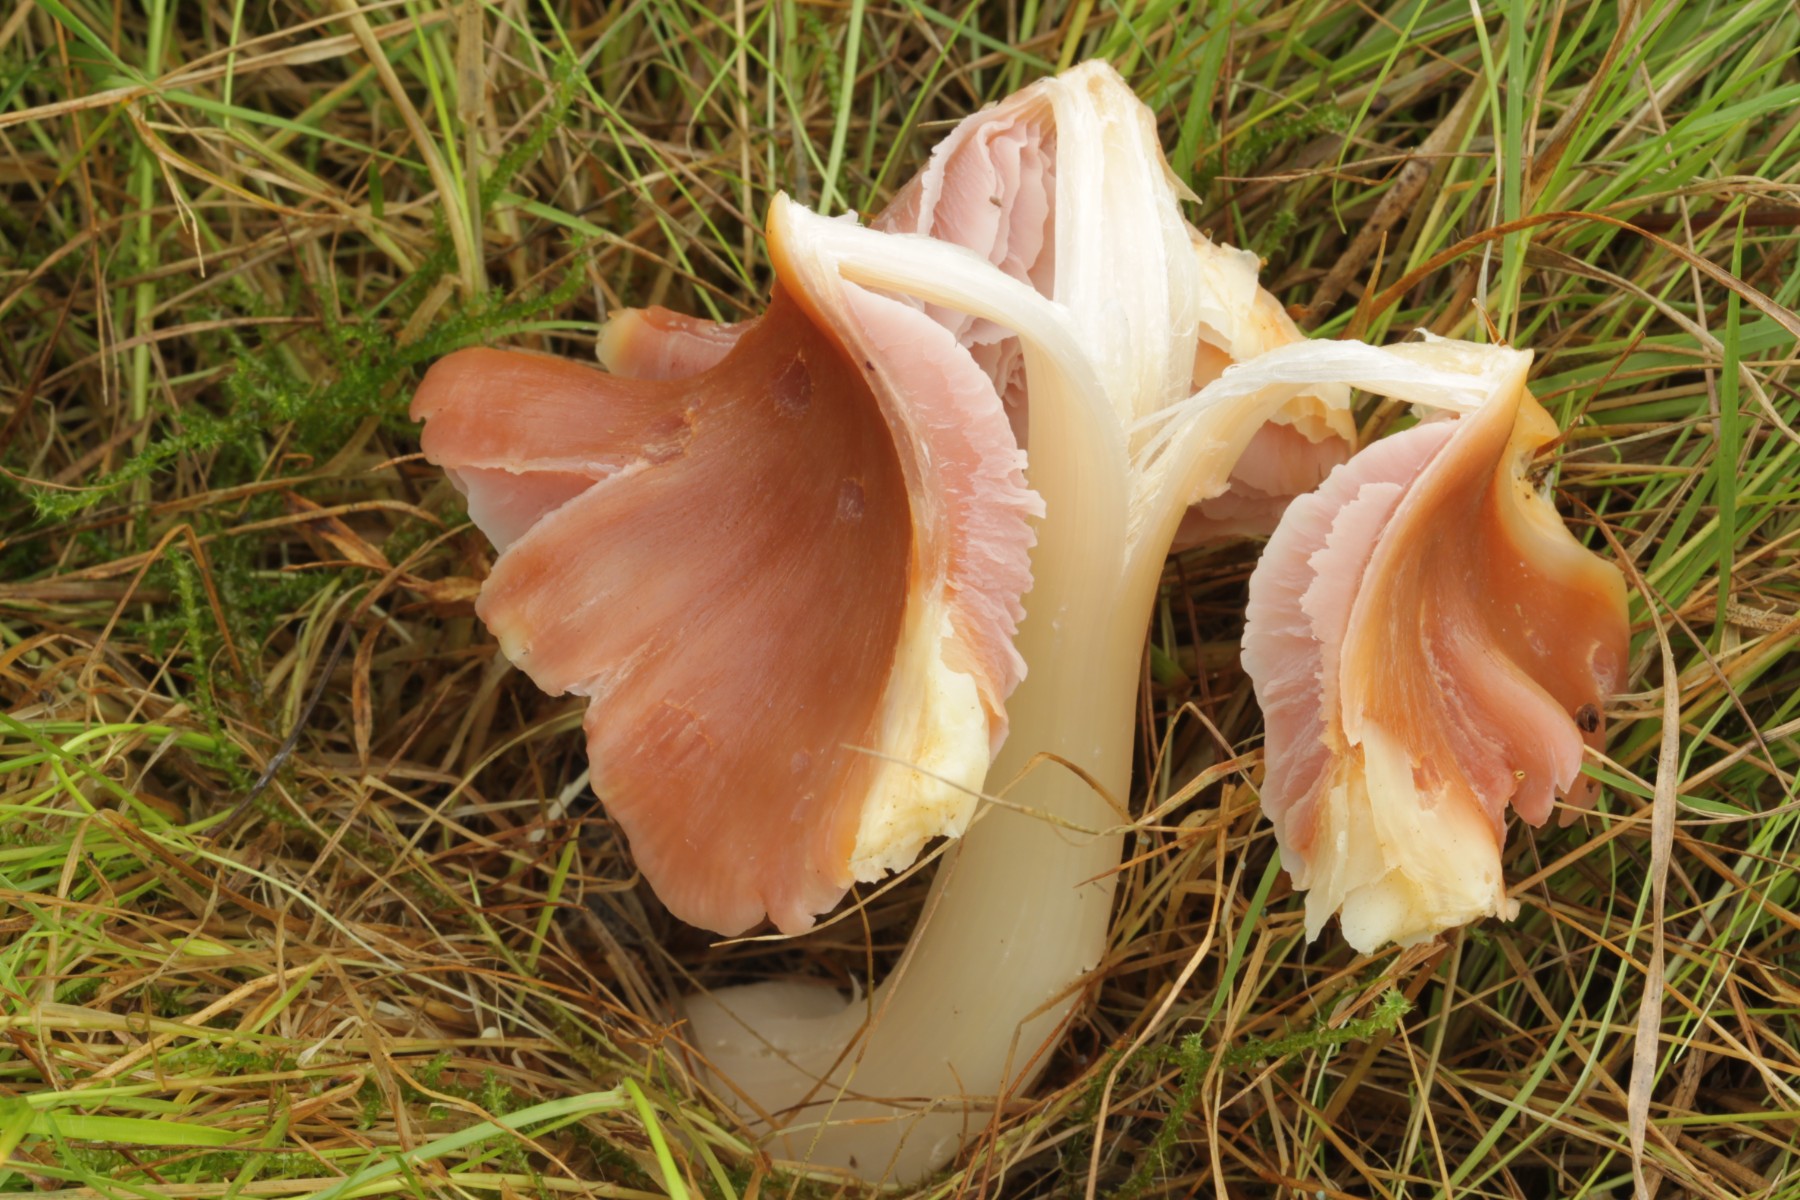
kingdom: Fungi
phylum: Basidiomycota
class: Agaricomycetes
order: Agaricales
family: Hygrophoraceae
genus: Porpolomopsis
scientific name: Porpolomopsis calyptriformis
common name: rosenrød vokshat
